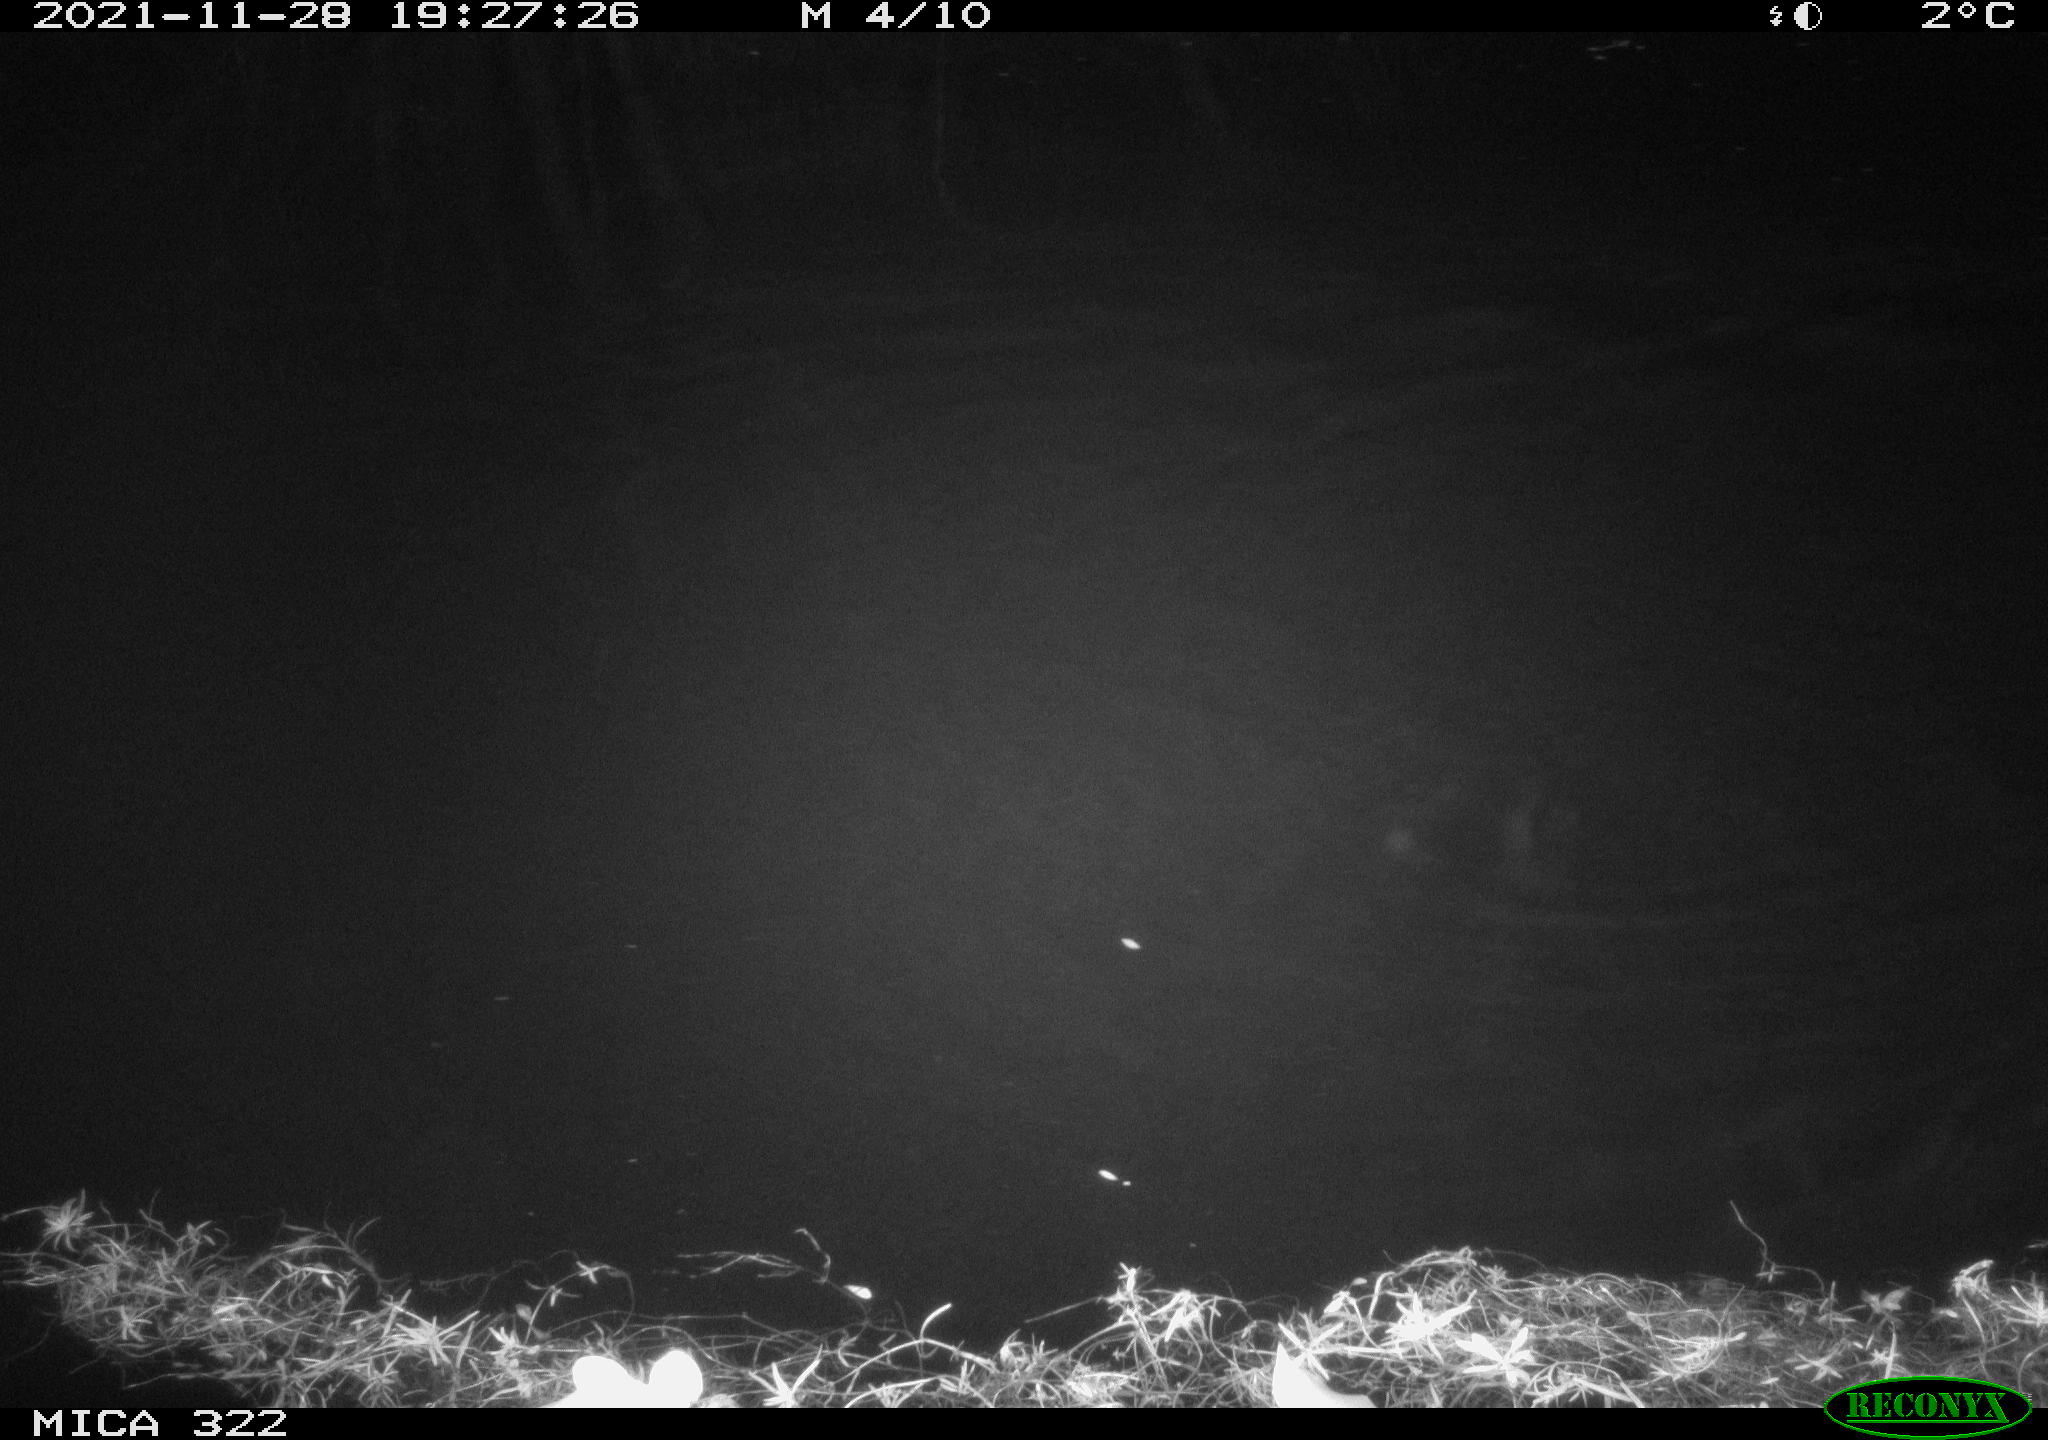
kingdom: Animalia
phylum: Chordata
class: Mammalia
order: Rodentia
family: Muridae
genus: Rattus
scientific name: Rattus norvegicus
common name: Brown rat
